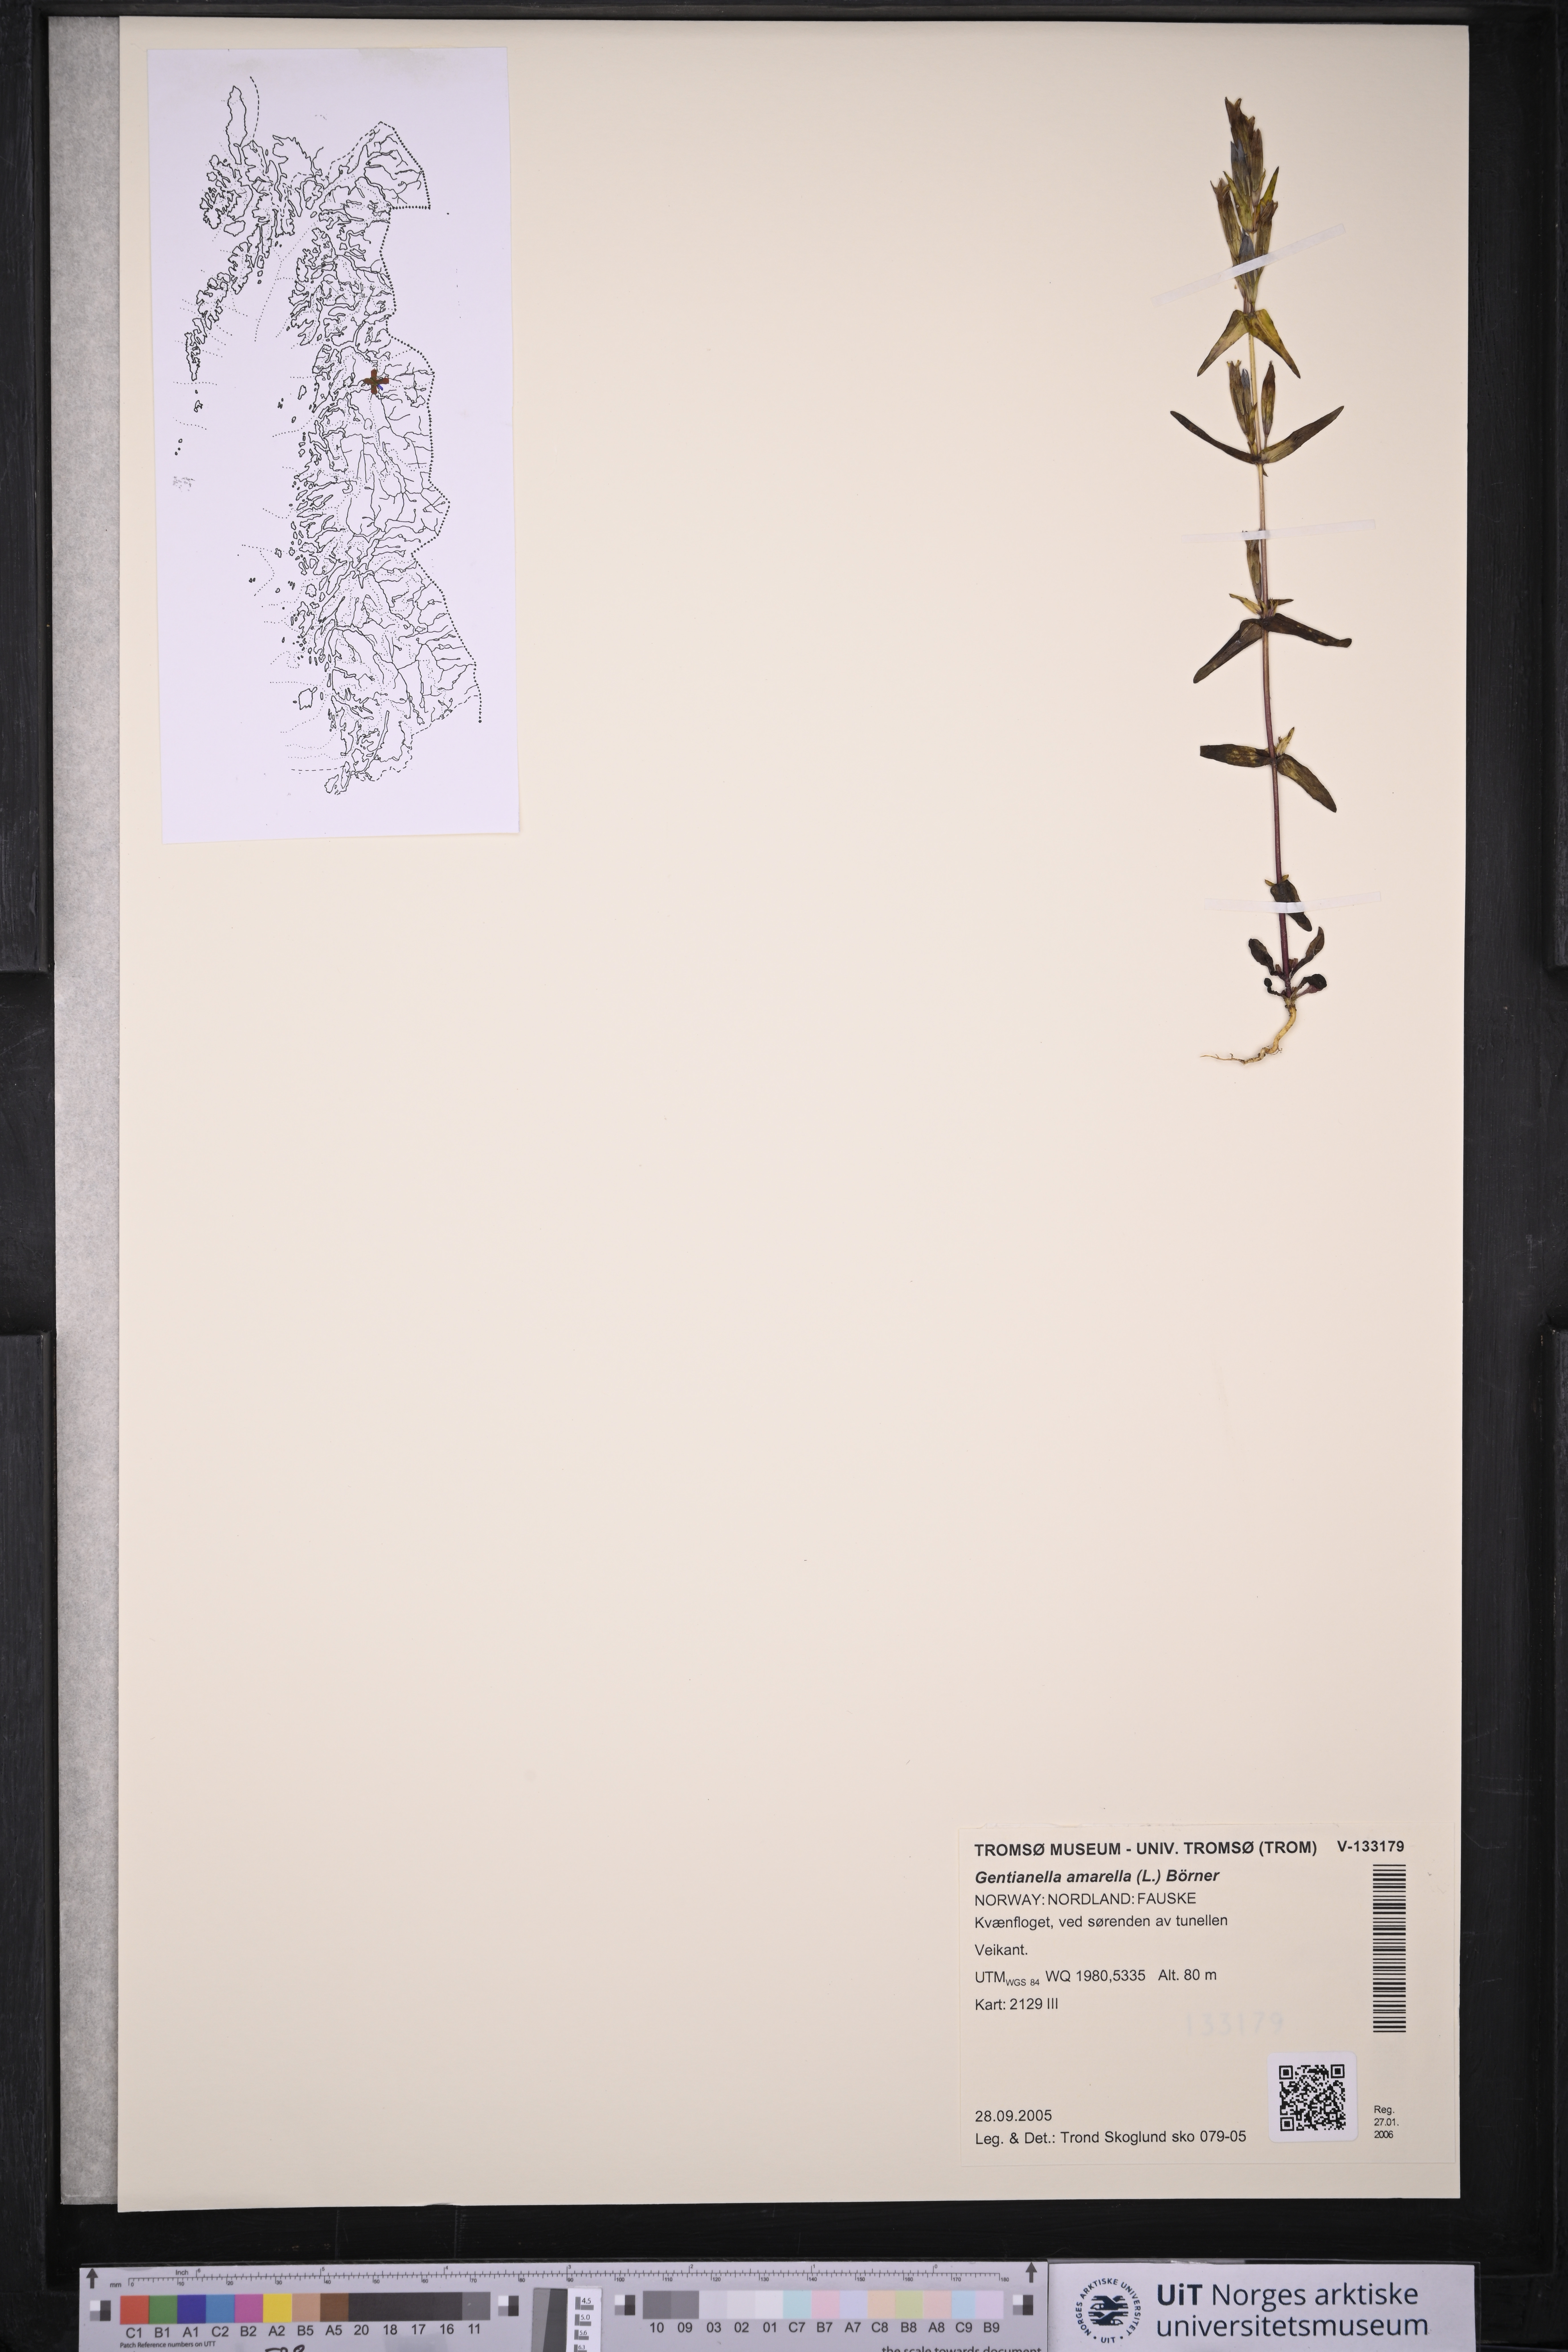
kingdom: Plantae
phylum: Tracheophyta
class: Magnoliopsida
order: Gentianales
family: Gentianaceae
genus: Gentianella
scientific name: Gentianella amarella
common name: Autumn gentian
